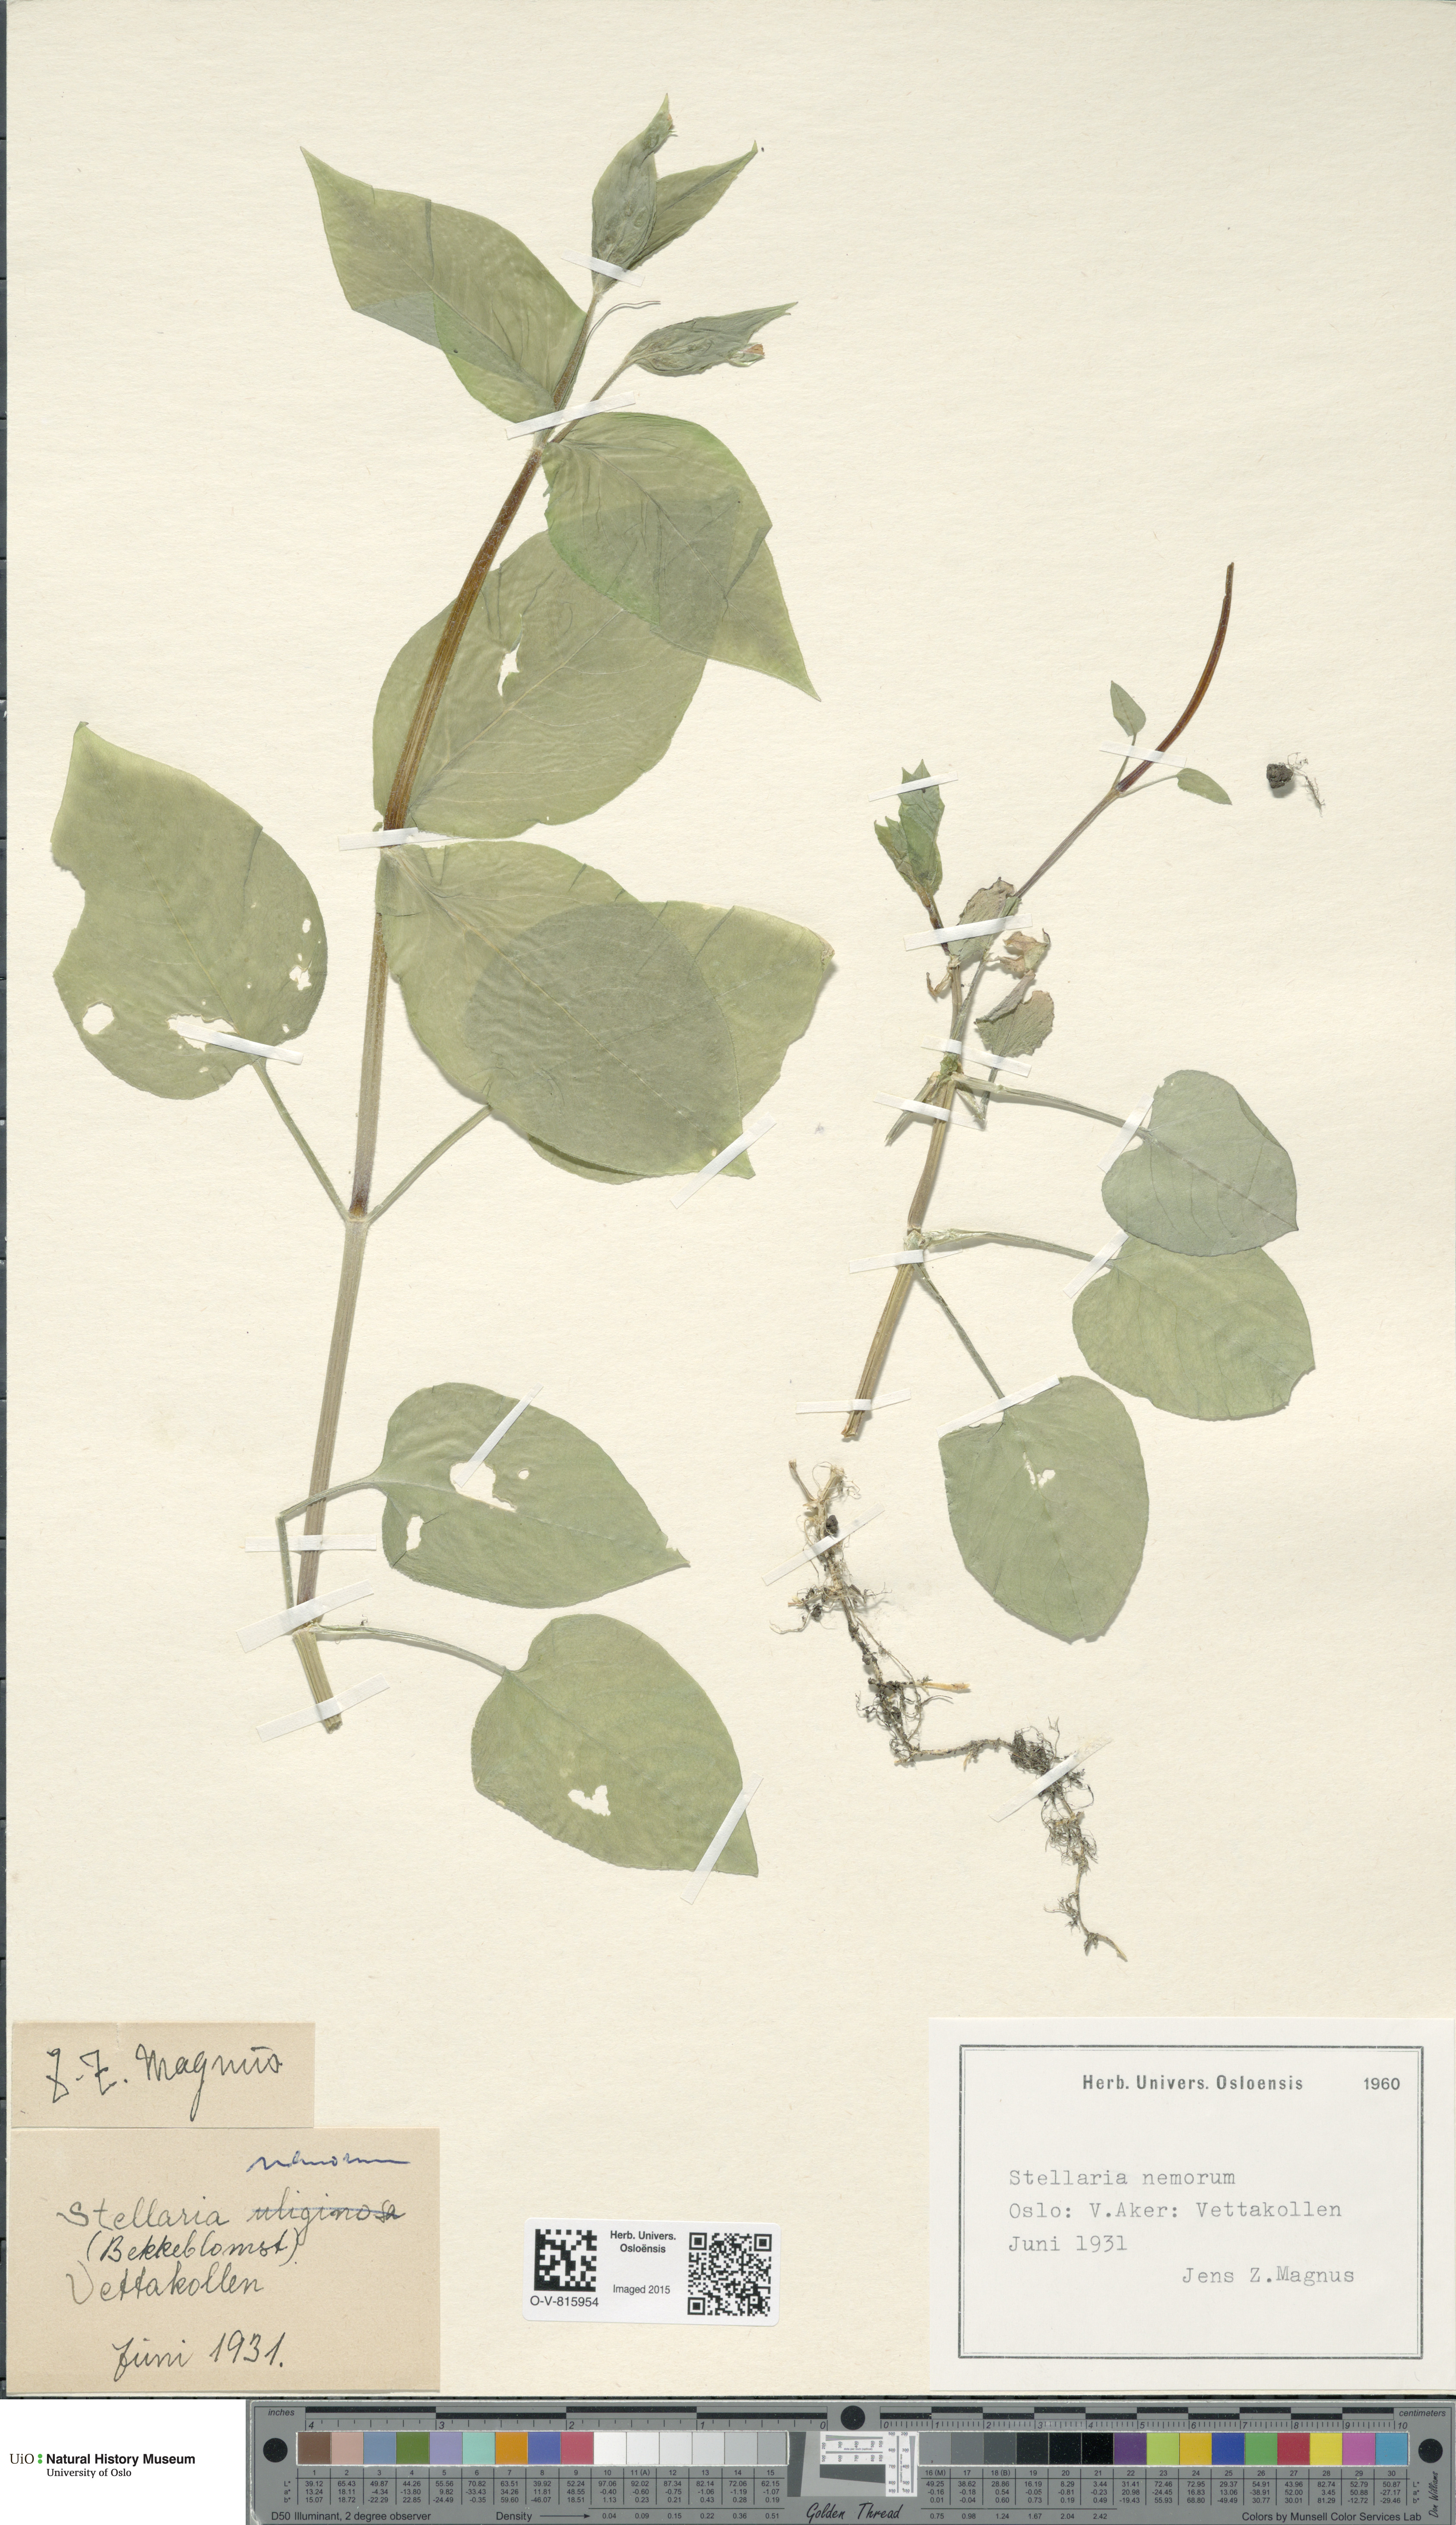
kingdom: Plantae
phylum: Tracheophyta
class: Magnoliopsida
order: Caryophyllales
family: Caryophyllaceae
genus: Stellaria
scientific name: Stellaria nemorum
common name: Wood stitchwort
